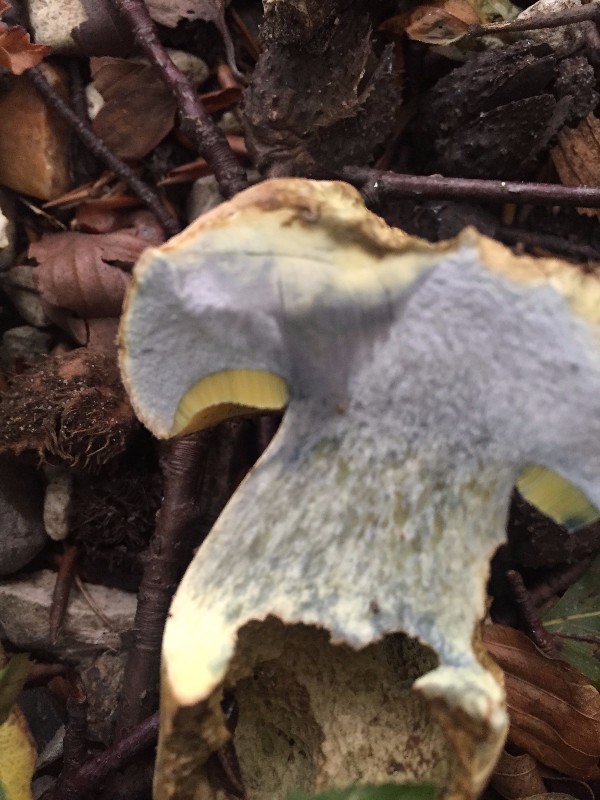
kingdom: Fungi
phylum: Basidiomycota
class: Agaricomycetes
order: Boletales
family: Boletaceae
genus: Caloboletus
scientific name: Caloboletus radicans
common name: rod-rørhat
